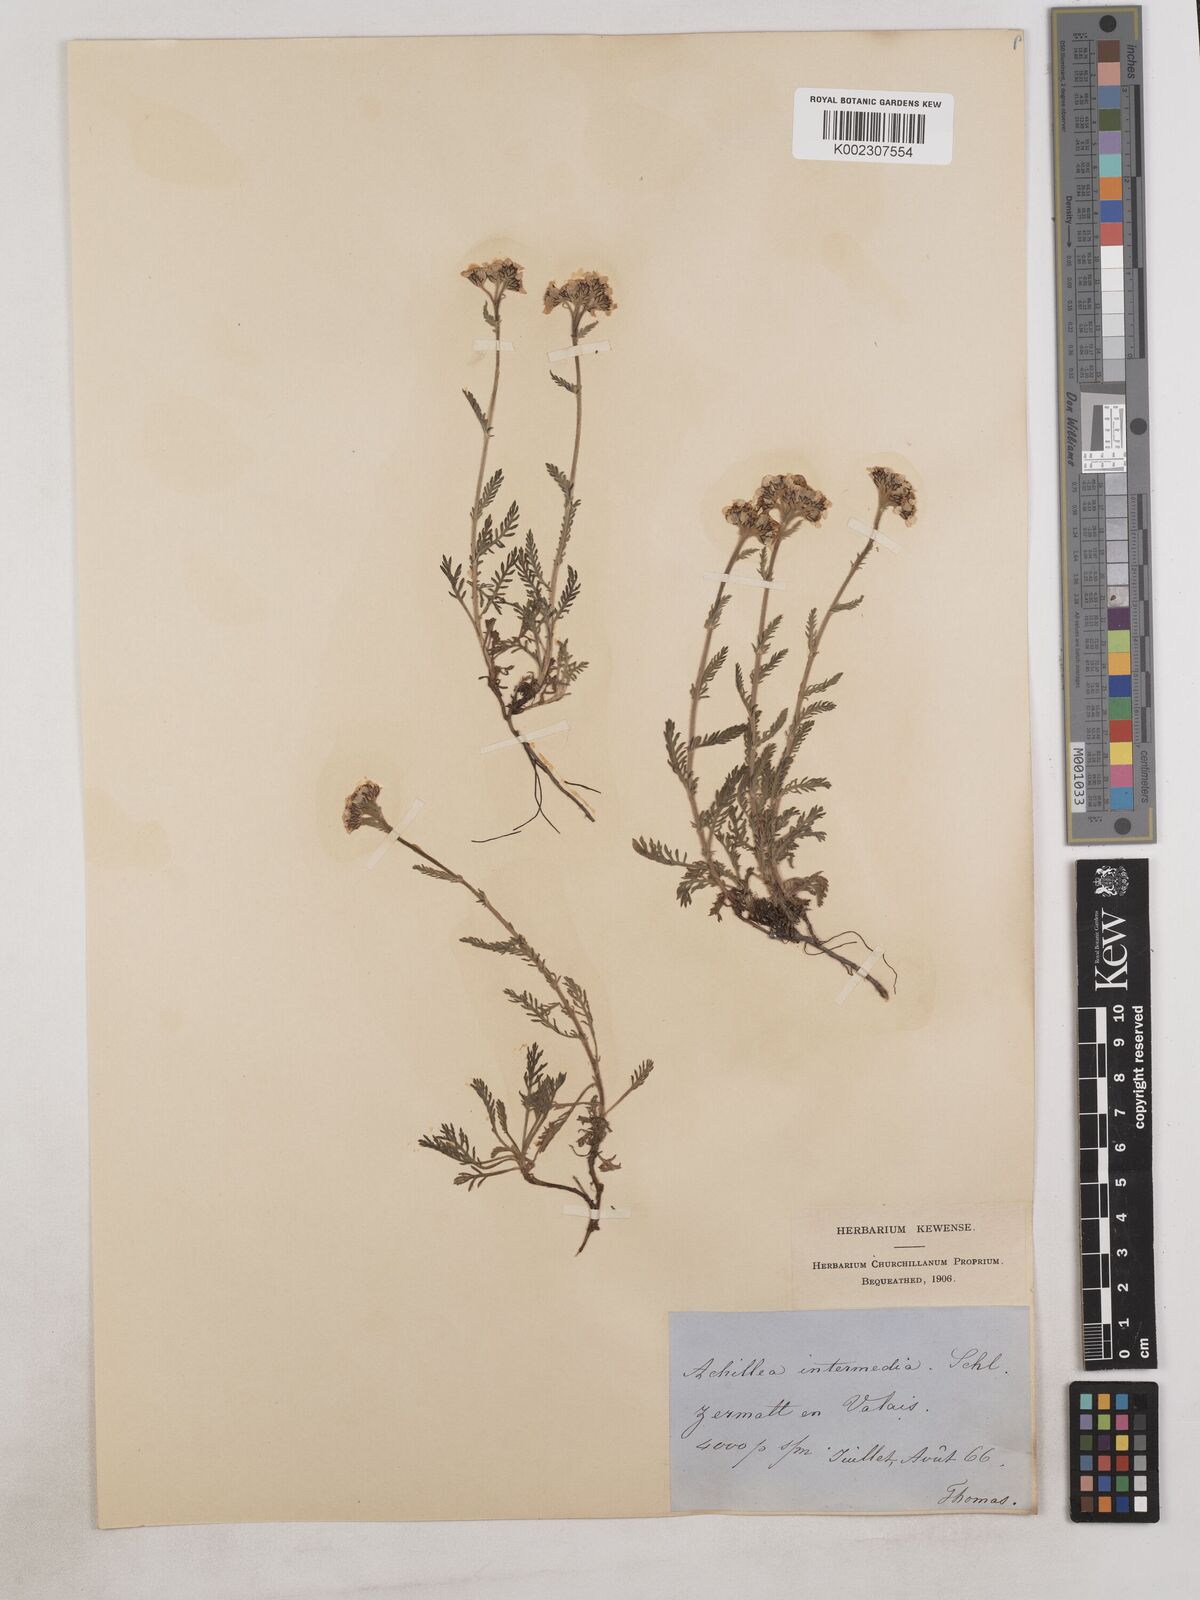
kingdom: Plantae
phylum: Tracheophyta
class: Magnoliopsida
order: Asterales
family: Asteraceae
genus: Achillea
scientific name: Achillea erba-rotta
